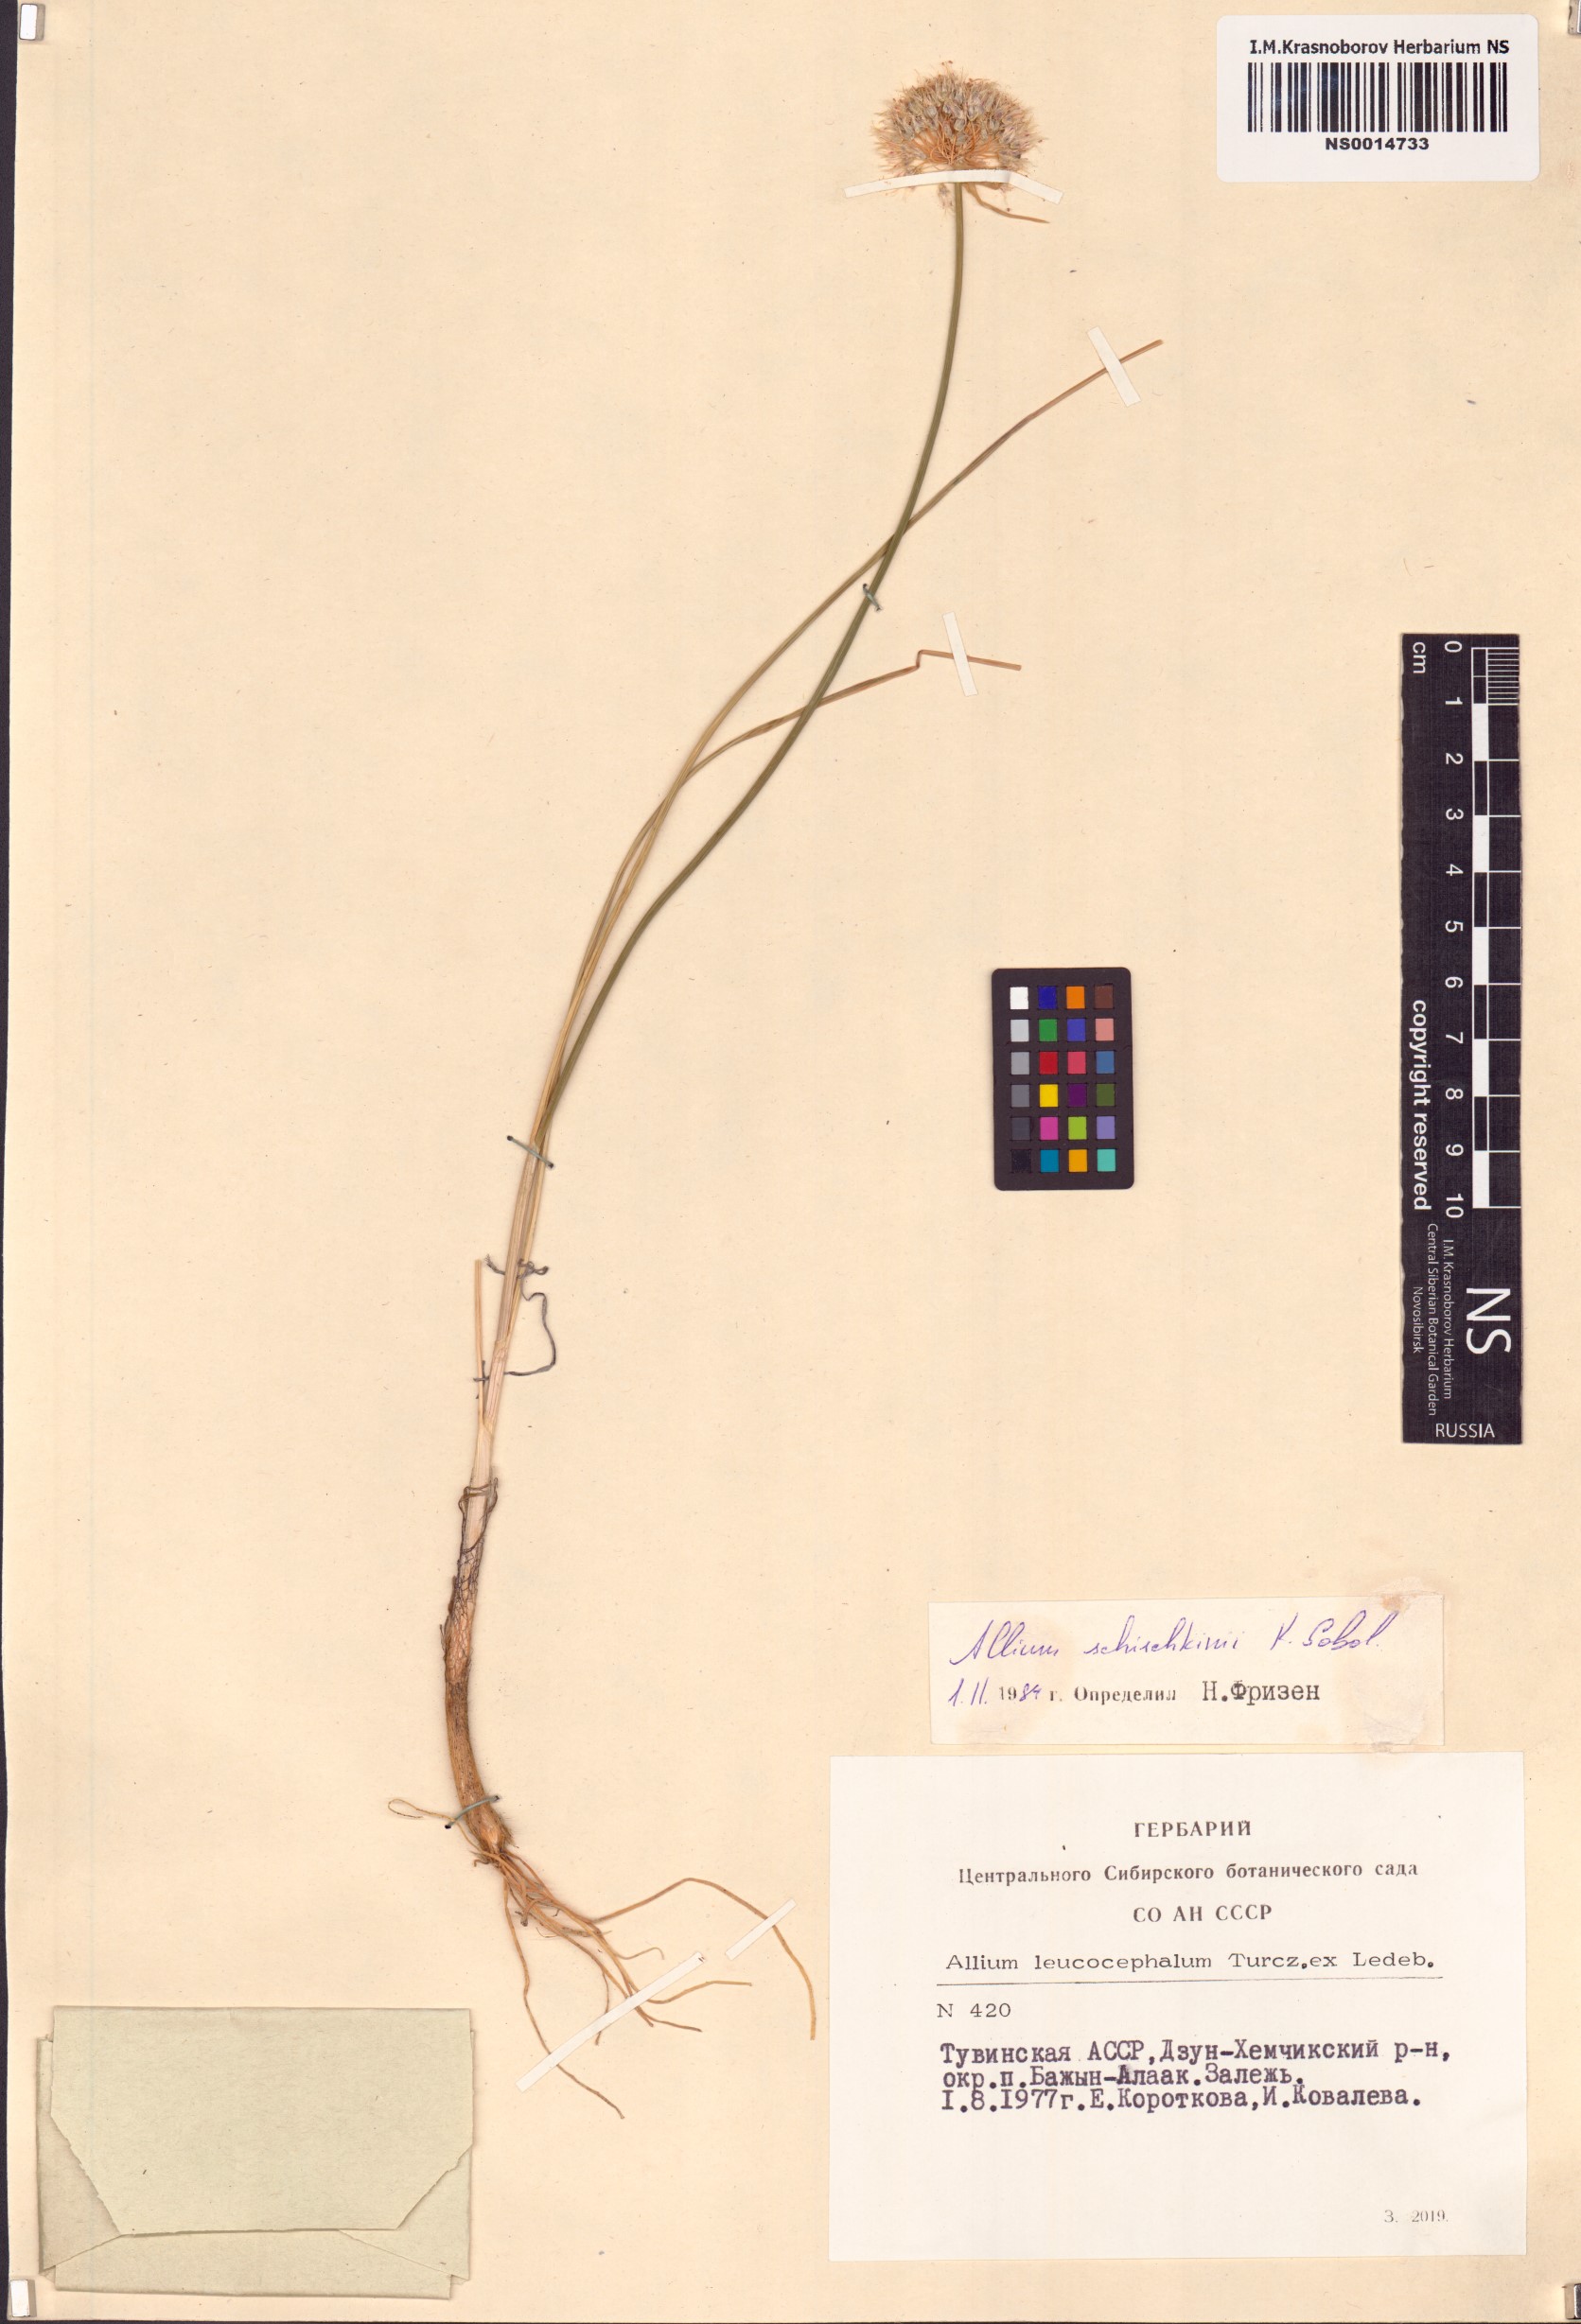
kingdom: Plantae
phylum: Tracheophyta
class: Liliopsida
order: Asparagales
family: Amaryllidaceae
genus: Allium
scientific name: Allium schischkinii
